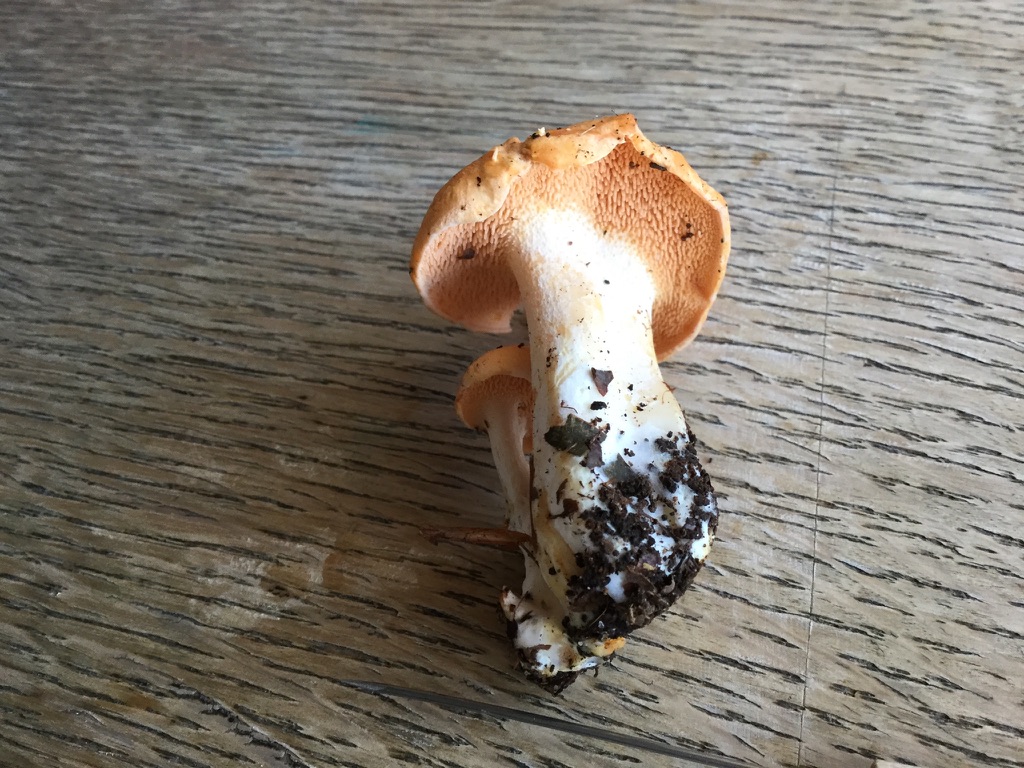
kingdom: Fungi
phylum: Basidiomycota
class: Agaricomycetes
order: Cantharellales
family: Hydnaceae
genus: Hydnum
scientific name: Hydnum ellipsosporum
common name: tandet pigsvamp
